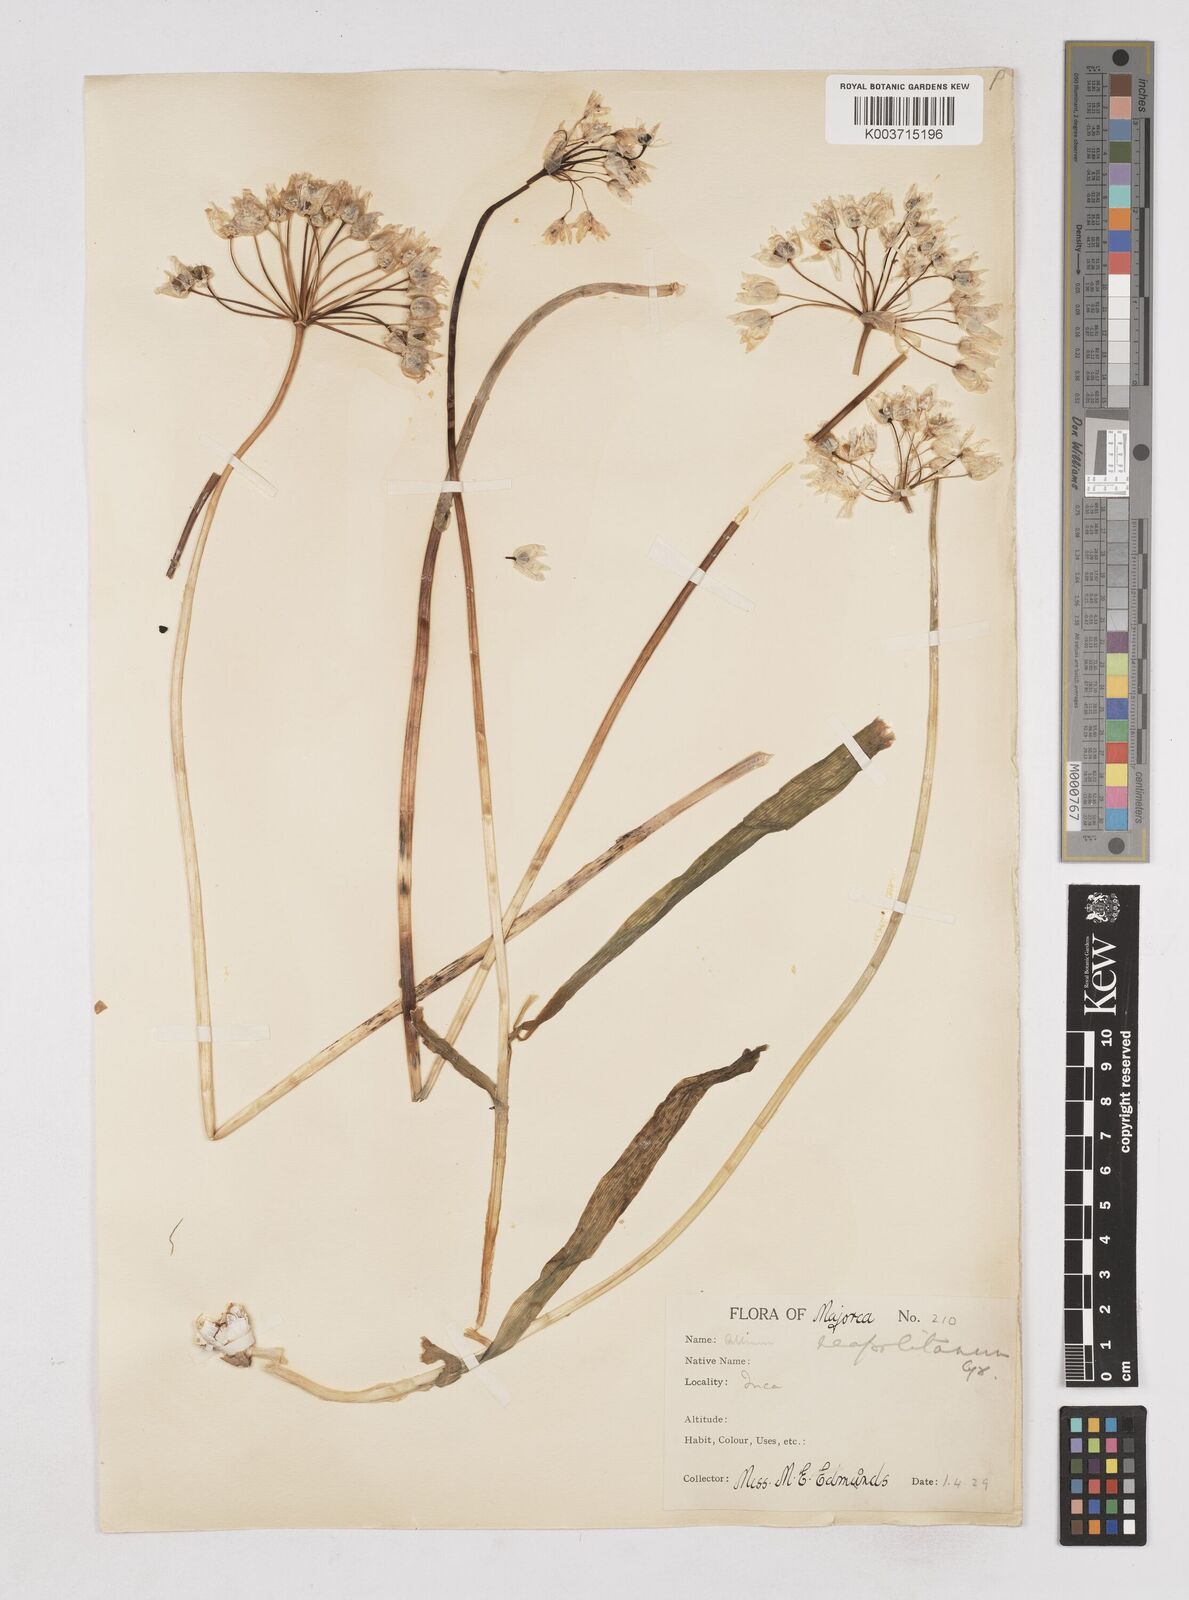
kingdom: Plantae
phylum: Tracheophyta
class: Liliopsida
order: Asparagales
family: Amaryllidaceae
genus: Allium
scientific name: Allium neapolitanum
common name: Neapolitan garlic
